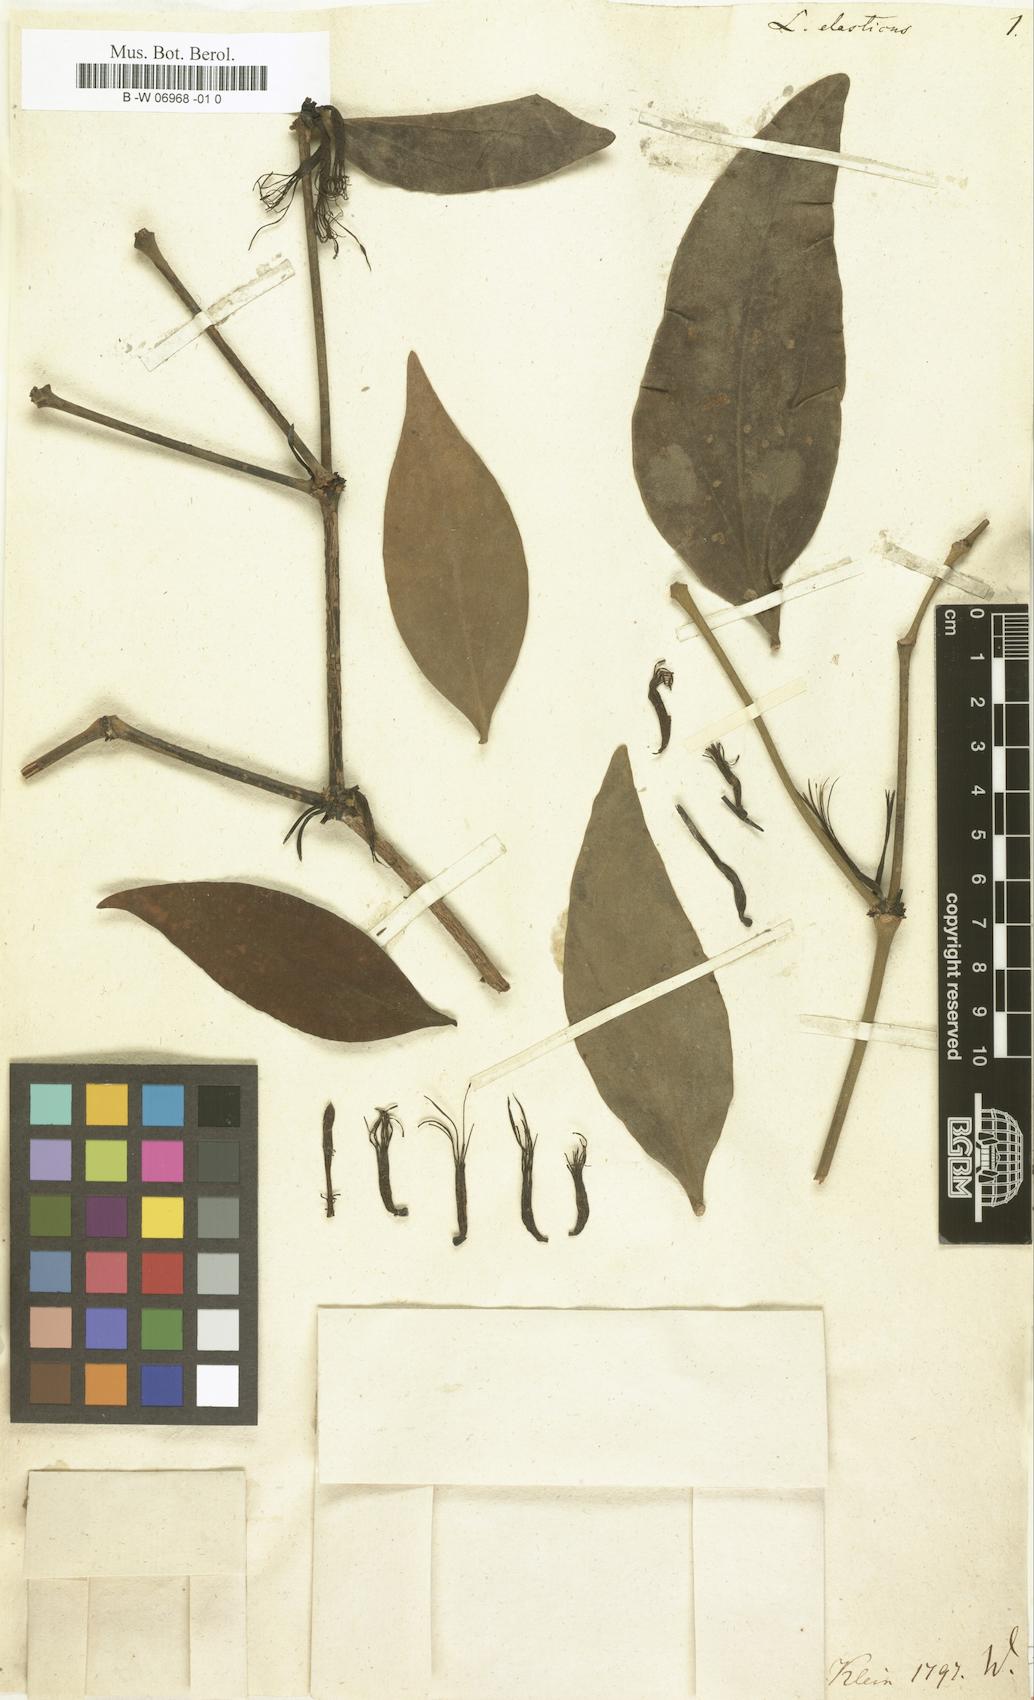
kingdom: Plantae
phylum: Tracheophyta
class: Magnoliopsida
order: Santalales
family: Loranthaceae
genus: Helicanthes
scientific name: Helicanthes elastica
